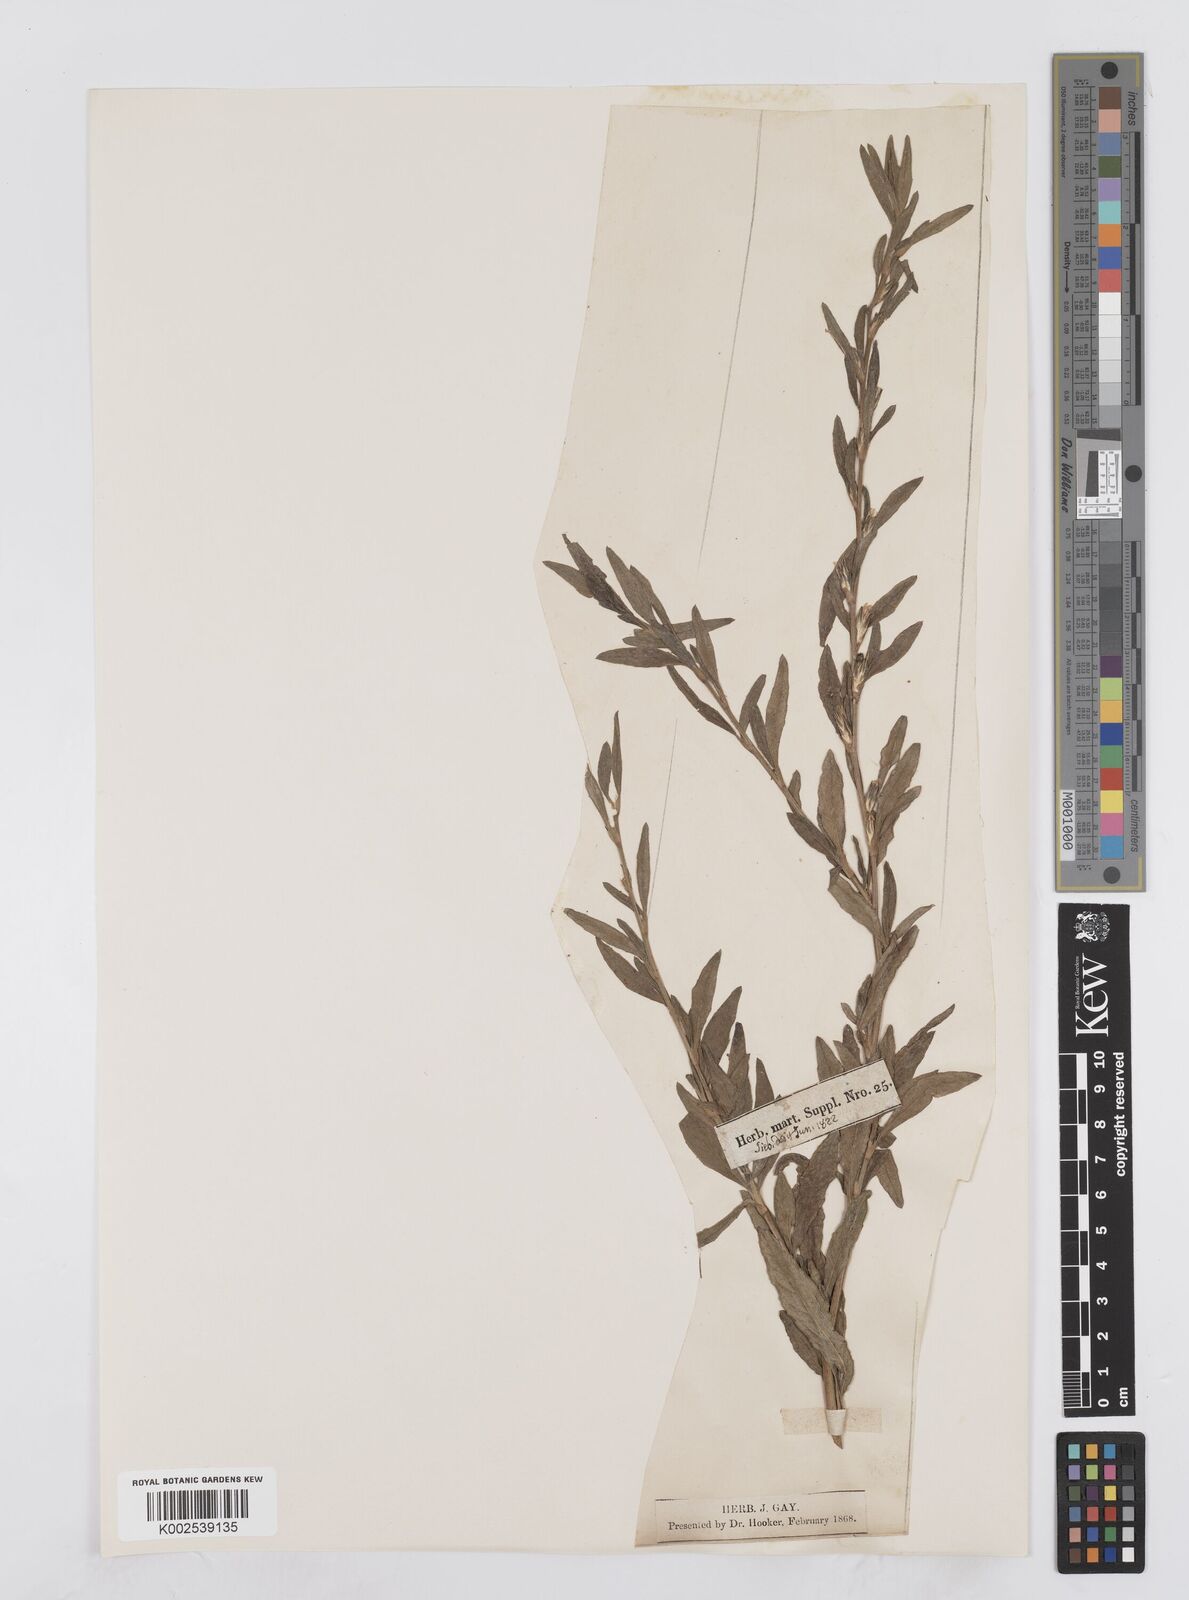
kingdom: Plantae
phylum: Tracheophyta
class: Magnoliopsida
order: Asterales
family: Asteraceae
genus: Pseudelephantopus
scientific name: Pseudelephantopus spicatus
